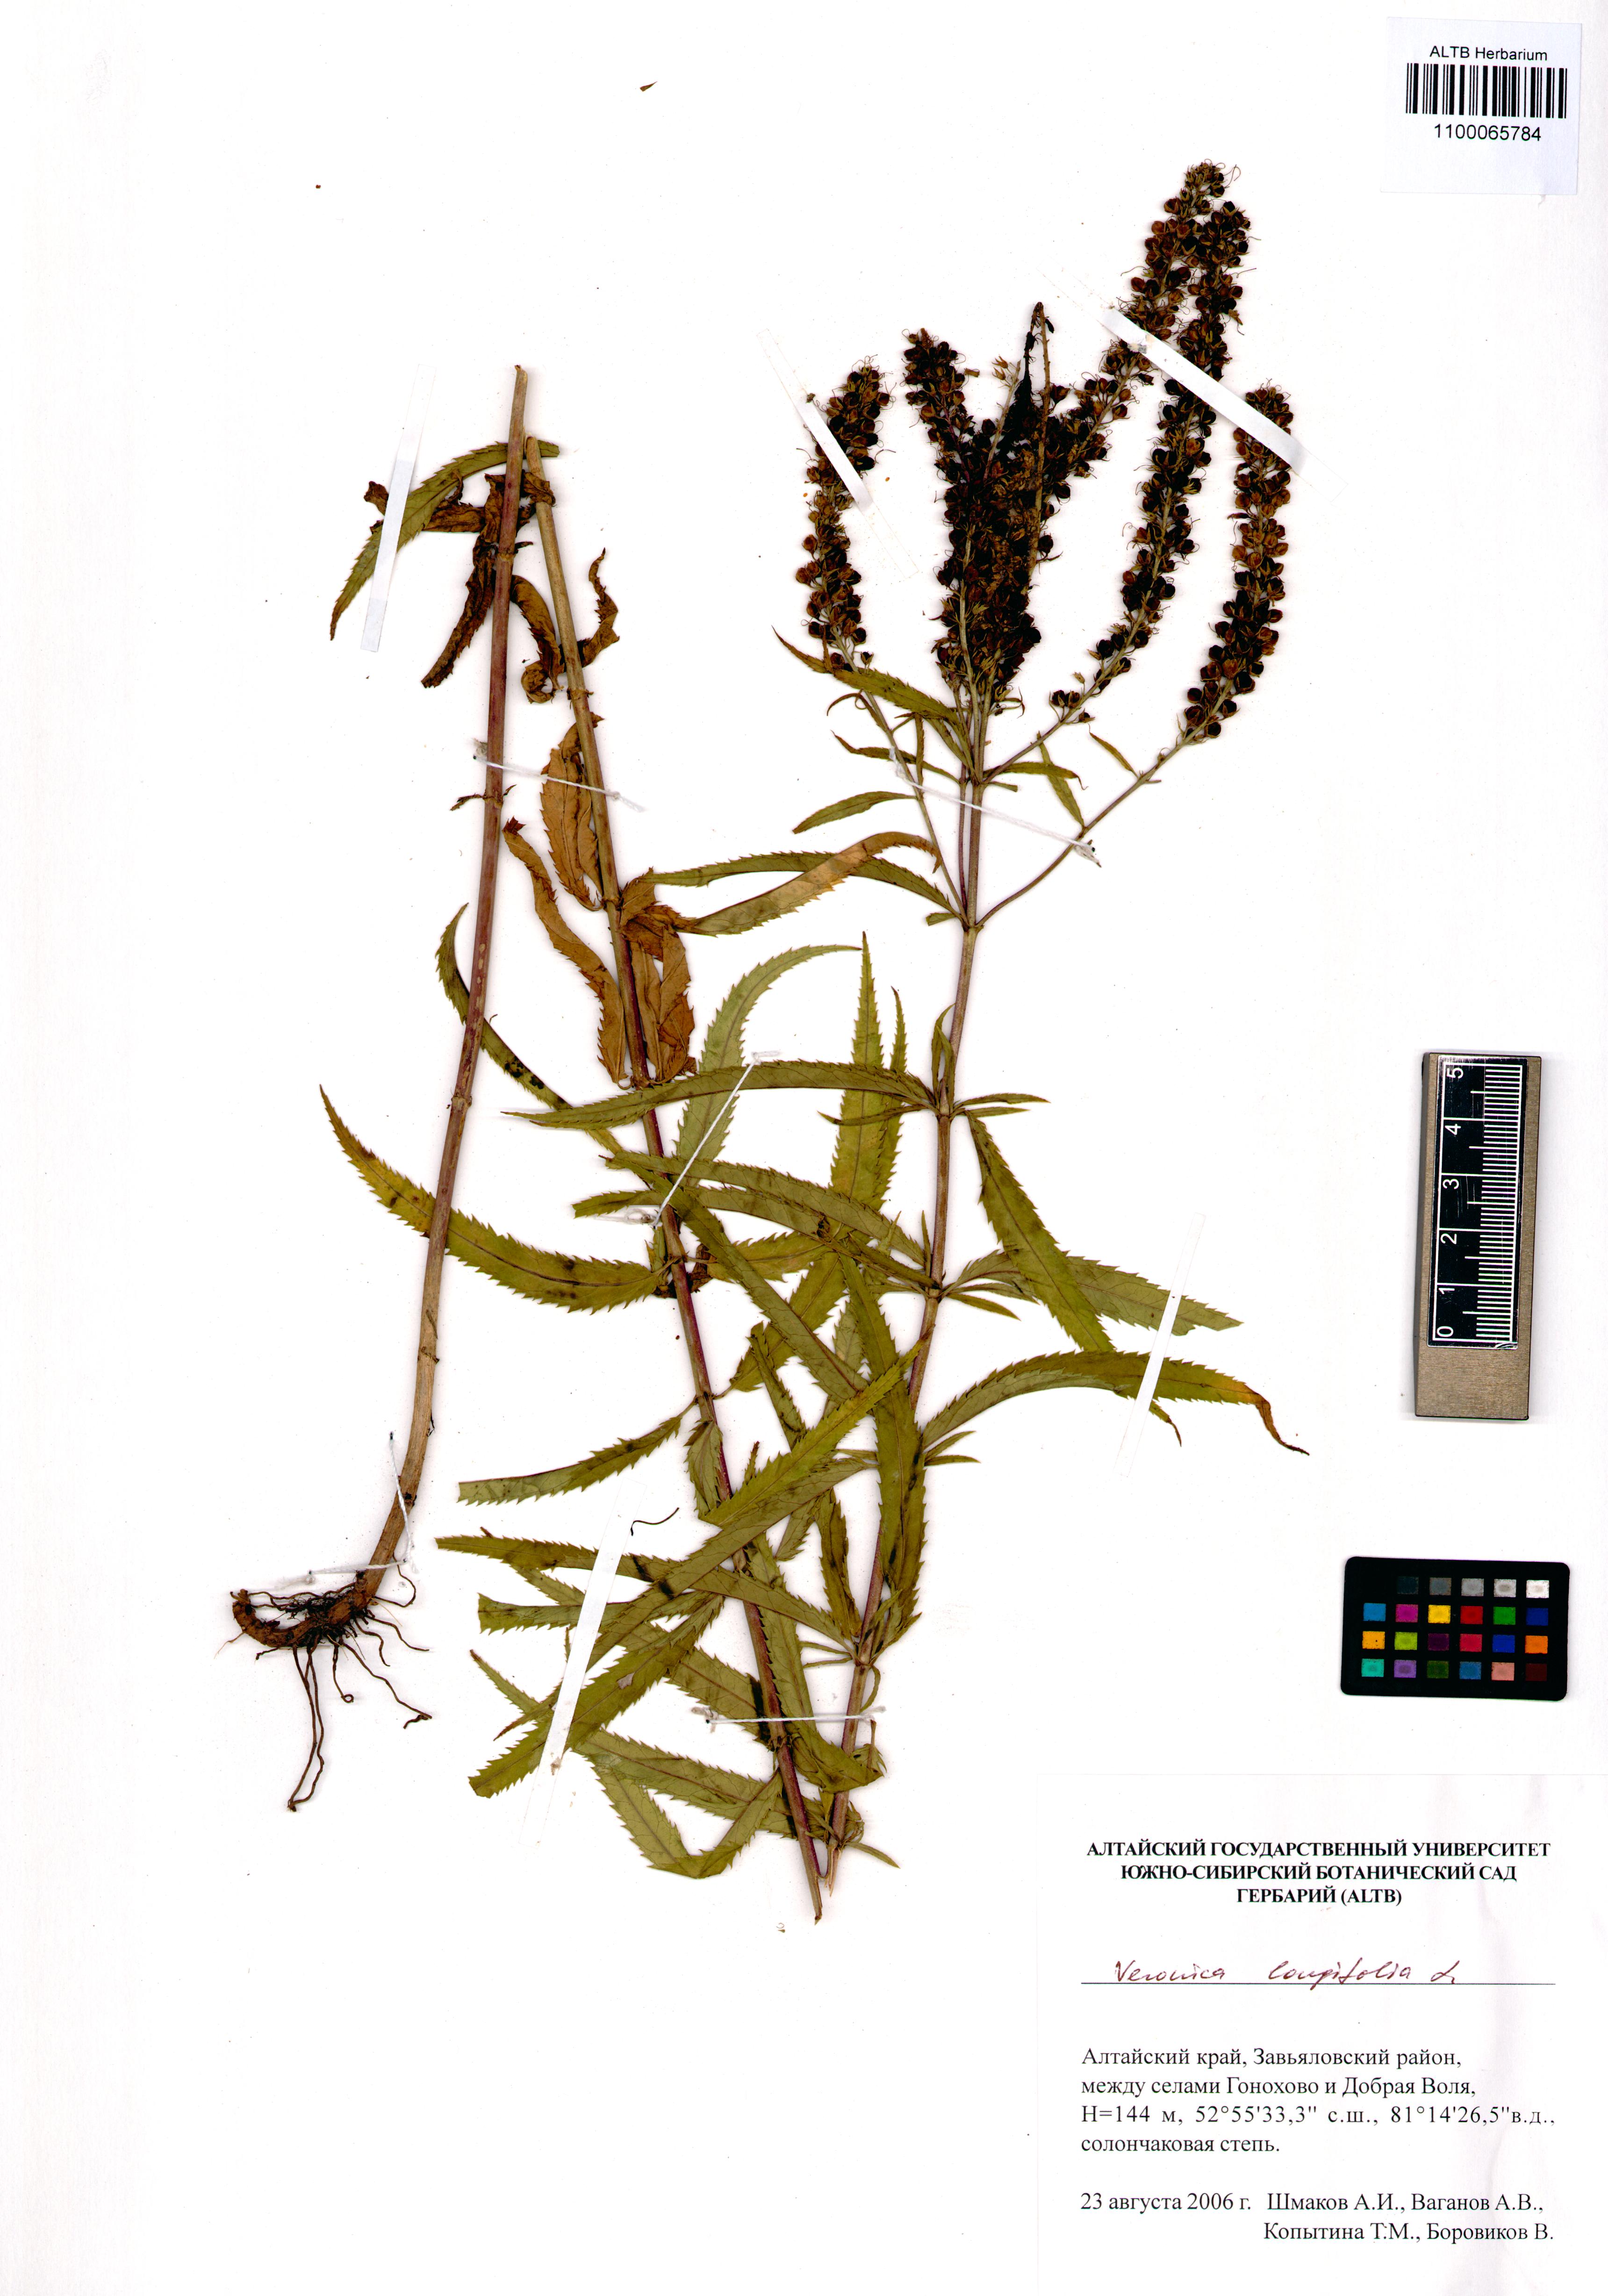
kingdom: Plantae
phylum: Tracheophyta
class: Magnoliopsida
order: Lamiales
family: Plantaginaceae
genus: Veronica
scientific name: Veronica longifolia
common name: Garden speedwell
